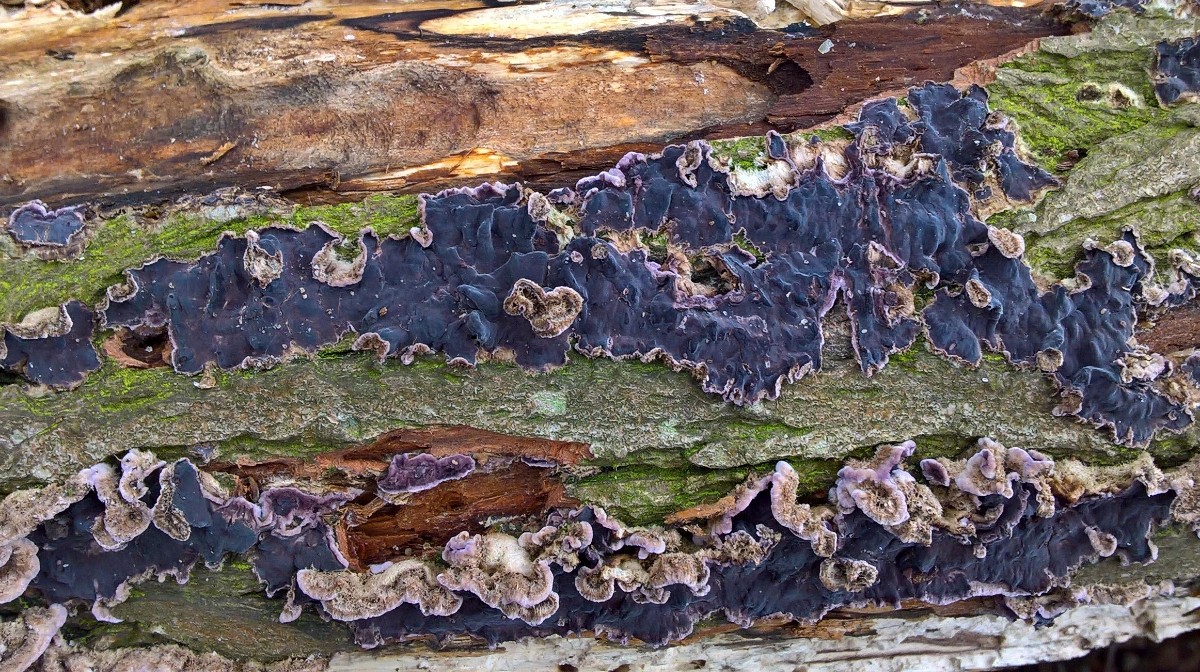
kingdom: Fungi
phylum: Basidiomycota
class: Agaricomycetes
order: Agaricales
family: Cyphellaceae
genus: Chondrostereum
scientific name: Chondrostereum purpureum
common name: purpurlædersvamp
